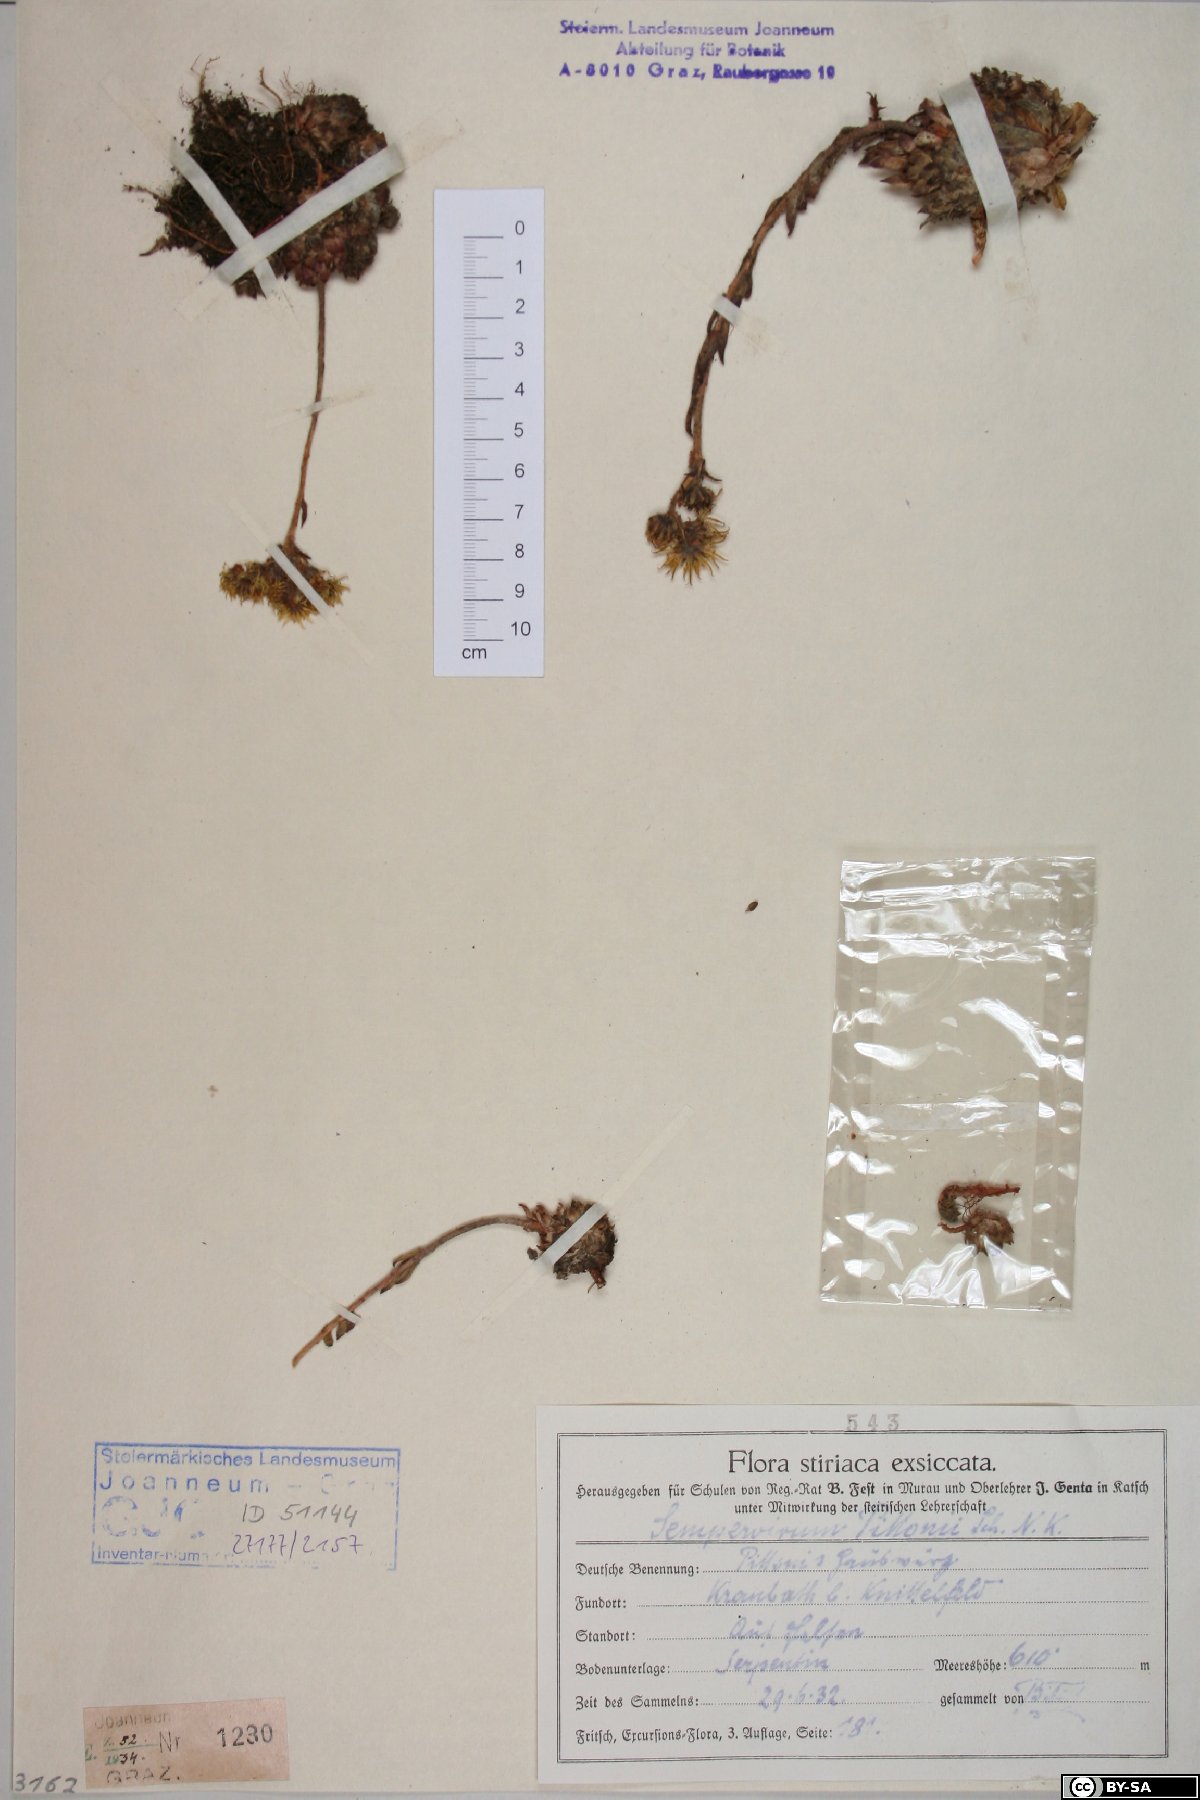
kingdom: Plantae
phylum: Tracheophyta
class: Magnoliopsida
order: Saxifragales
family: Crassulaceae
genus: Sempervivum
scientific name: Sempervivum pittonii
